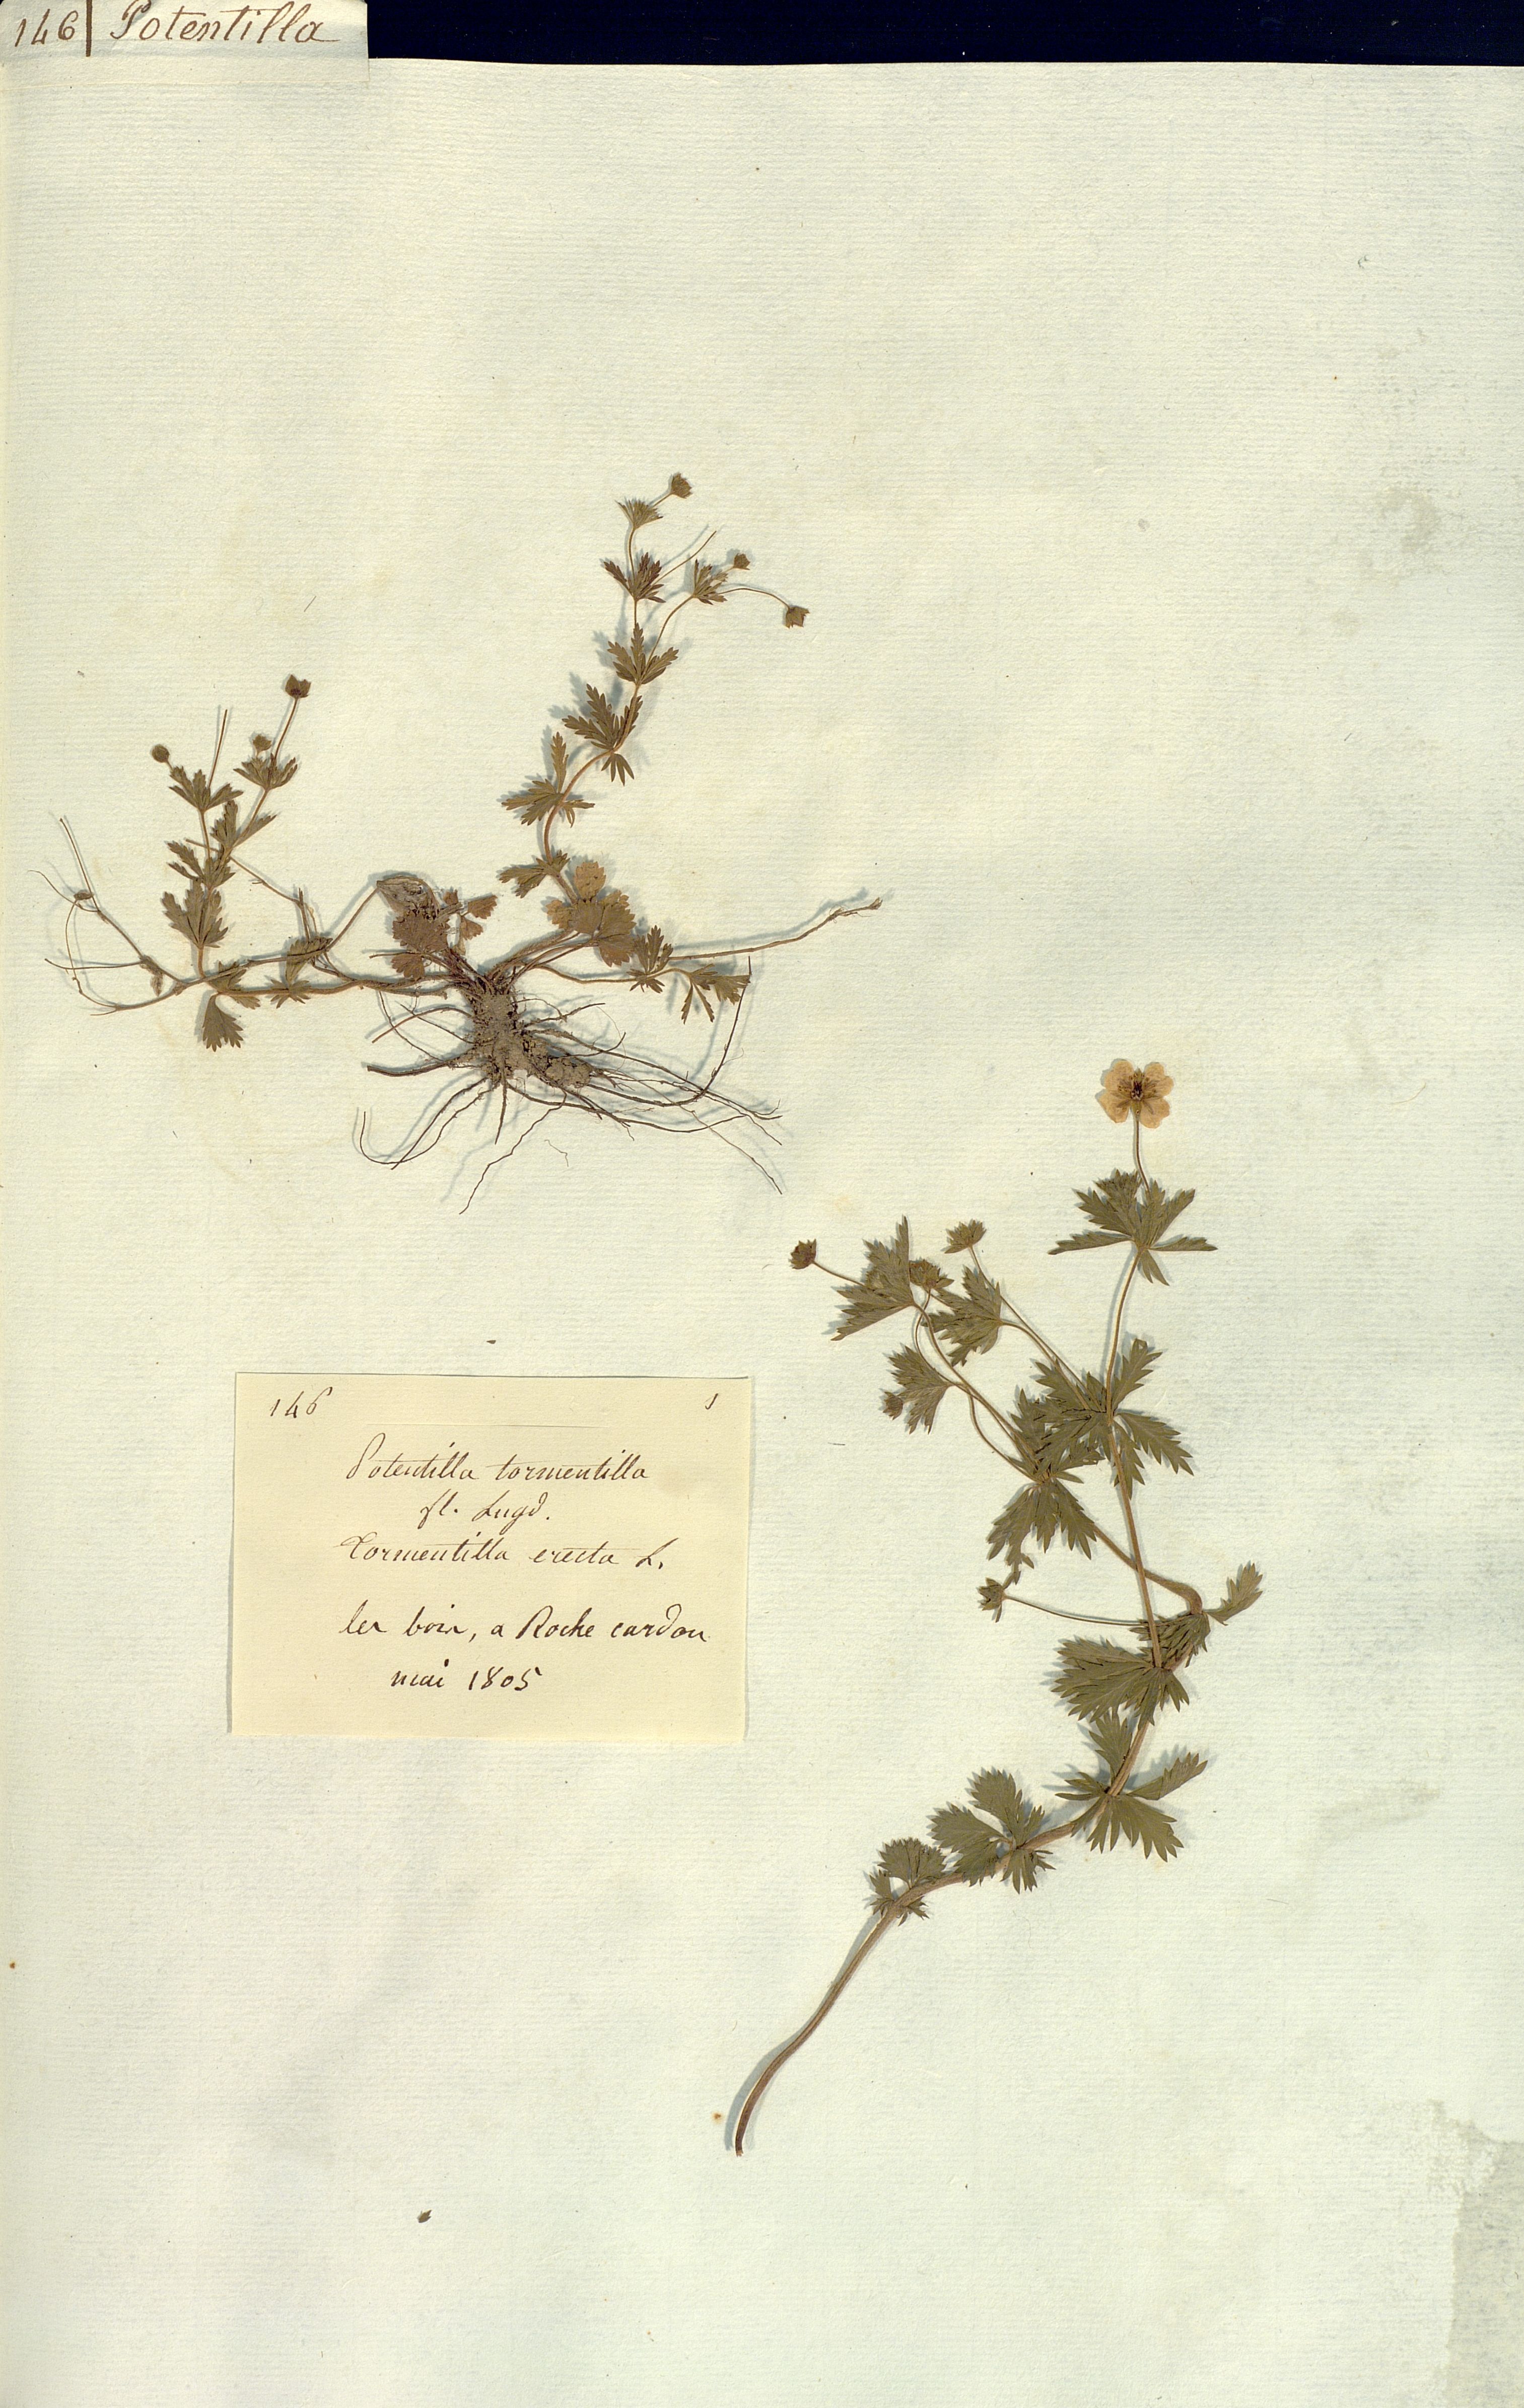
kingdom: Plantae
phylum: Tracheophyta
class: Magnoliopsida
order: Rosales
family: Rosaceae
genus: Potentilla
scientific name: Potentilla erecta
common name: Tormentil
